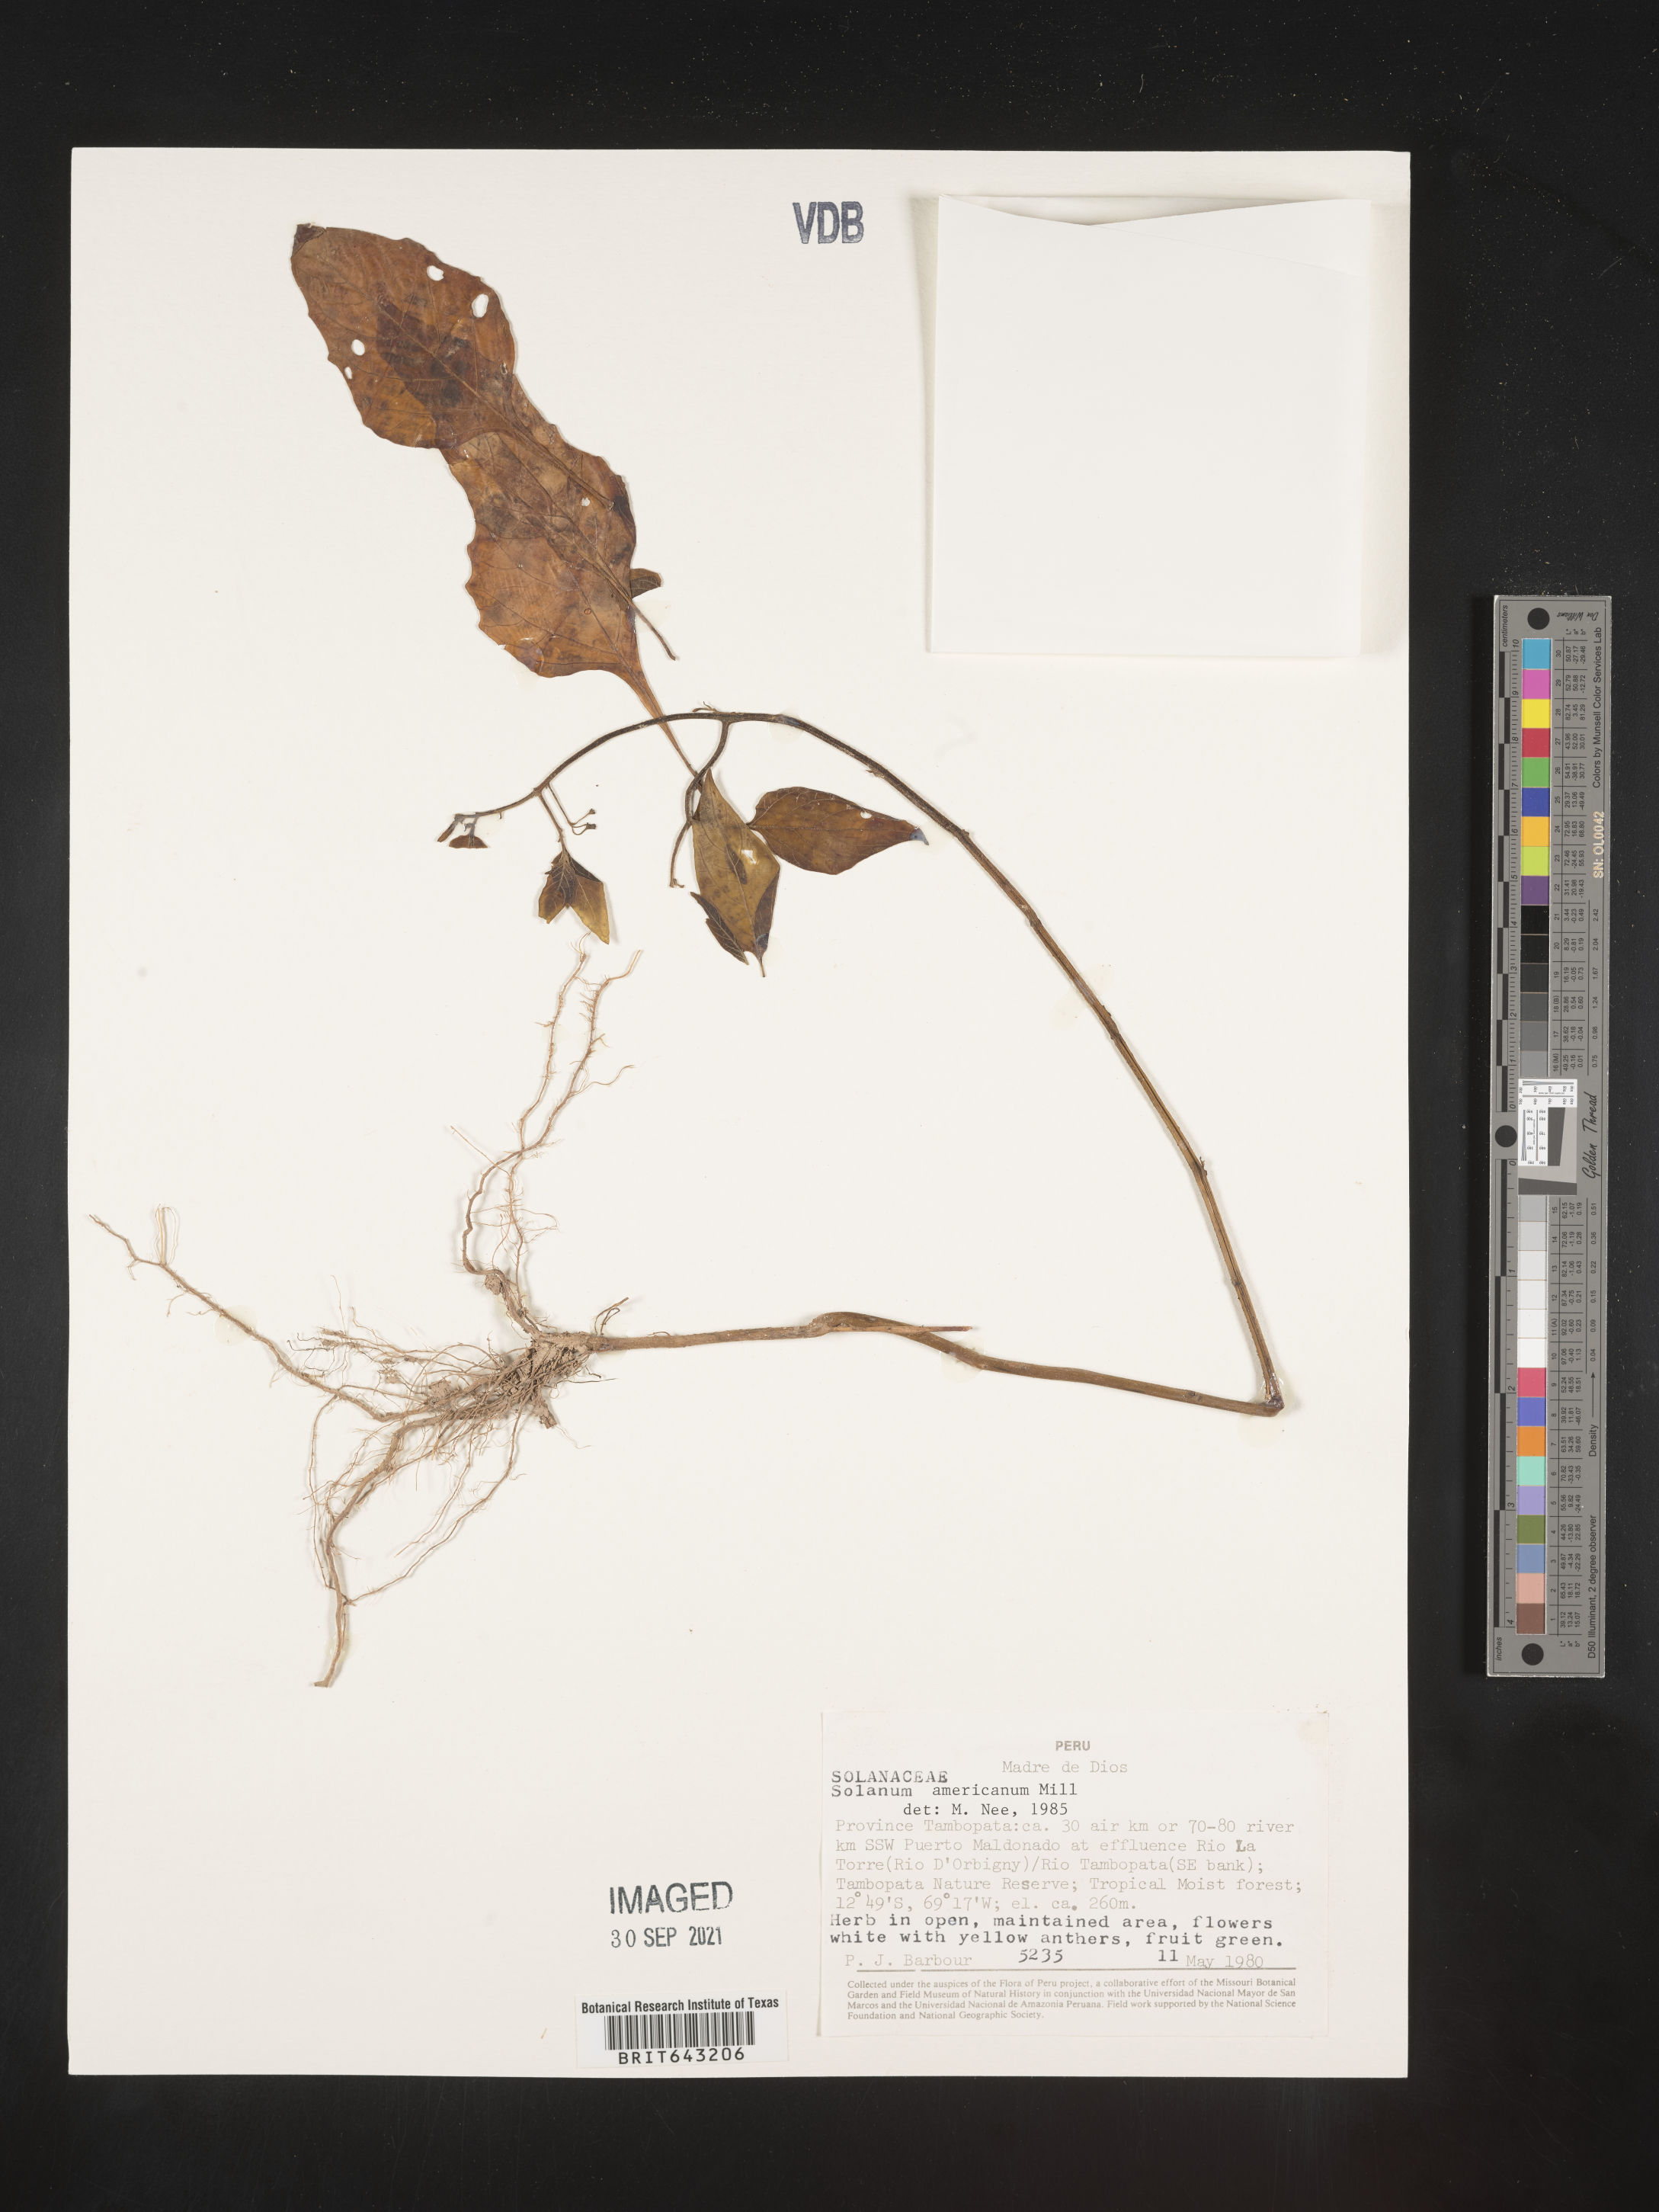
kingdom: Plantae
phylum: Tracheophyta
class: Magnoliopsida
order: Solanales
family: Solanaceae
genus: Solanum
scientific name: Solanum
